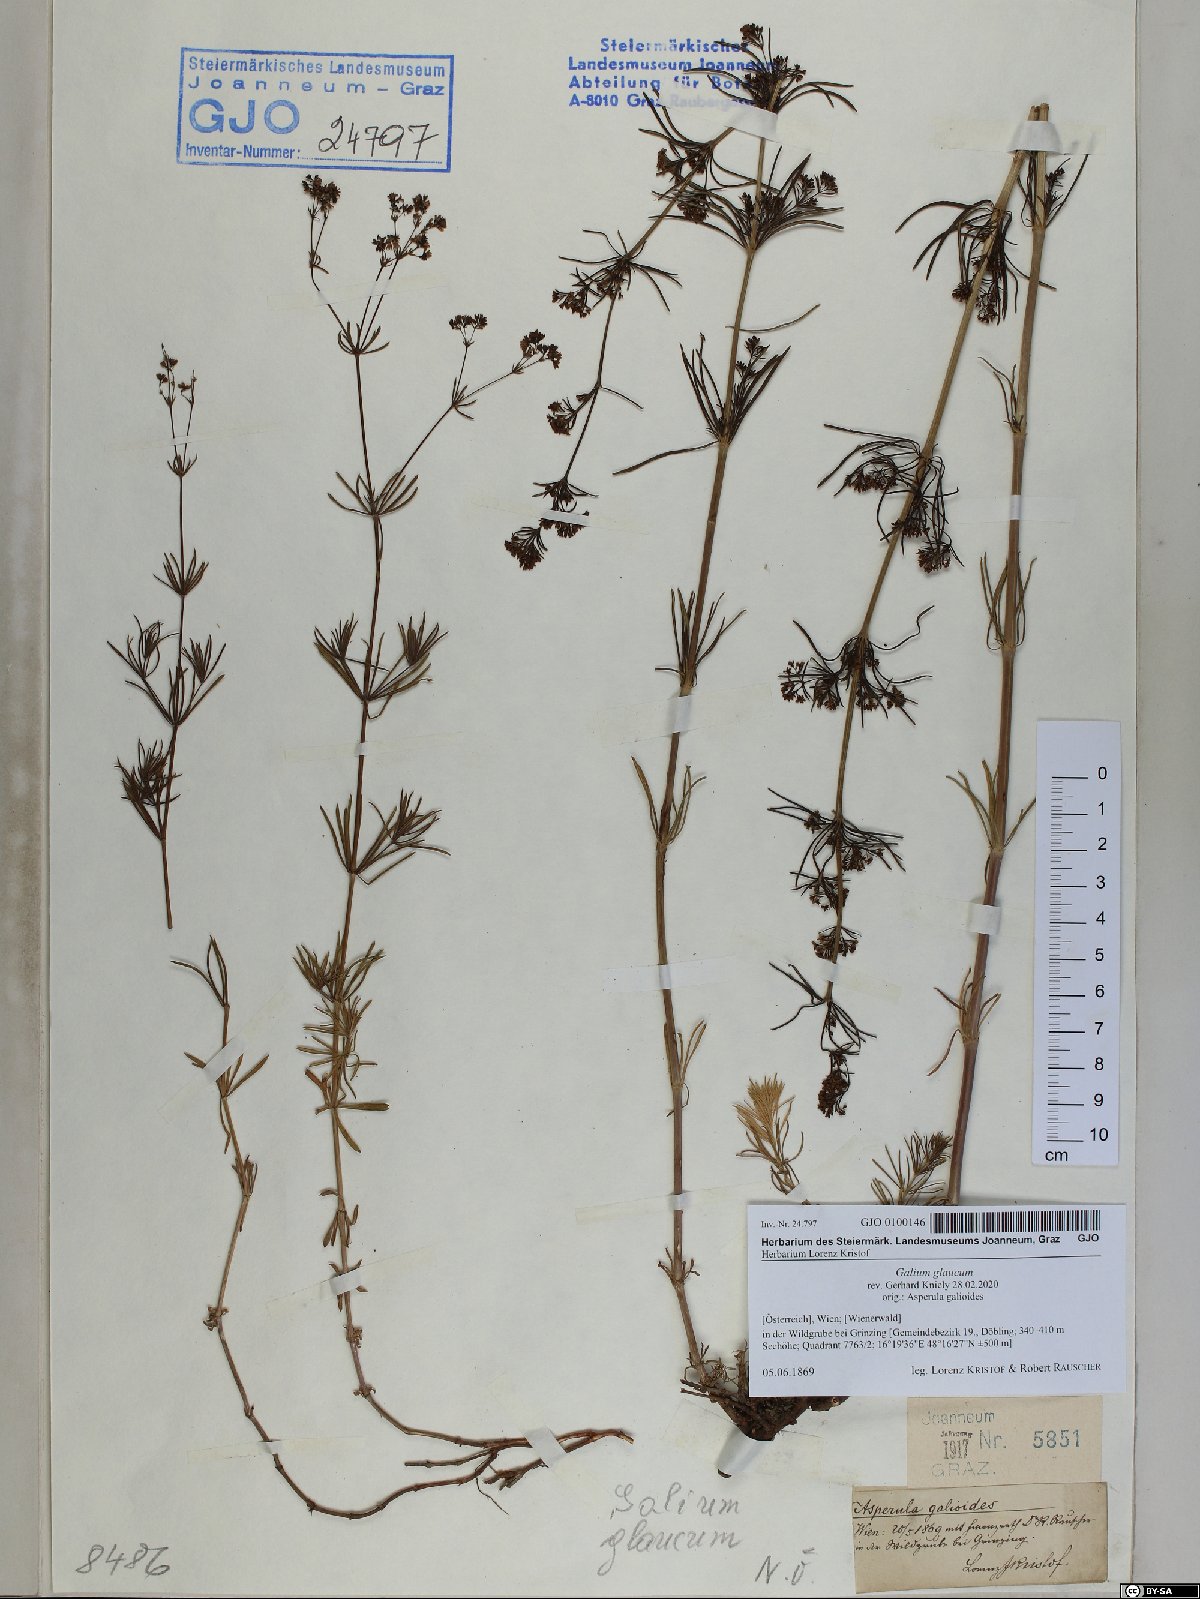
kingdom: Plantae
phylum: Tracheophyta
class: Magnoliopsida
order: Gentianales
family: Rubiaceae
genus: Galium
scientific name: Galium glaucum
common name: Waxy bedstraw
